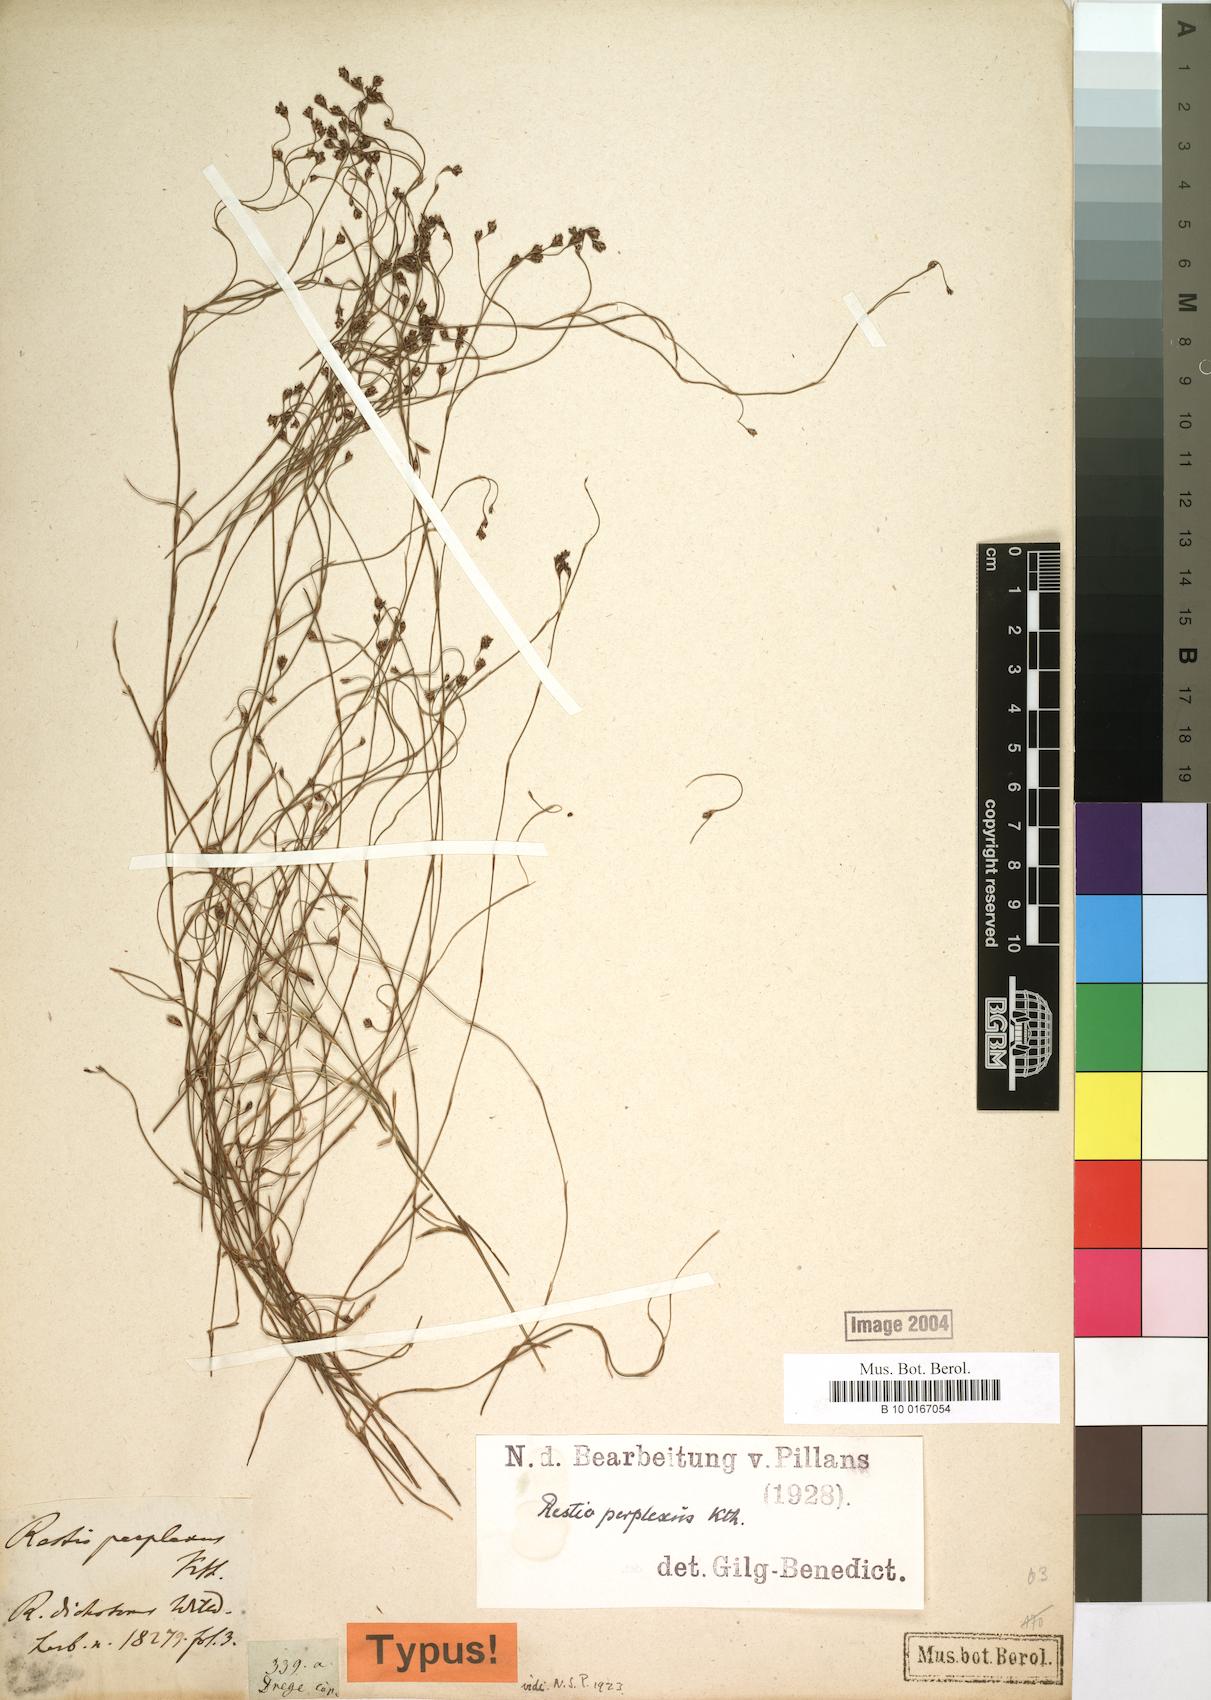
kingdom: Plantae
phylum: Tracheophyta
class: Liliopsida
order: Poales
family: Restionaceae
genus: Restio
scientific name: Restio perplexus
